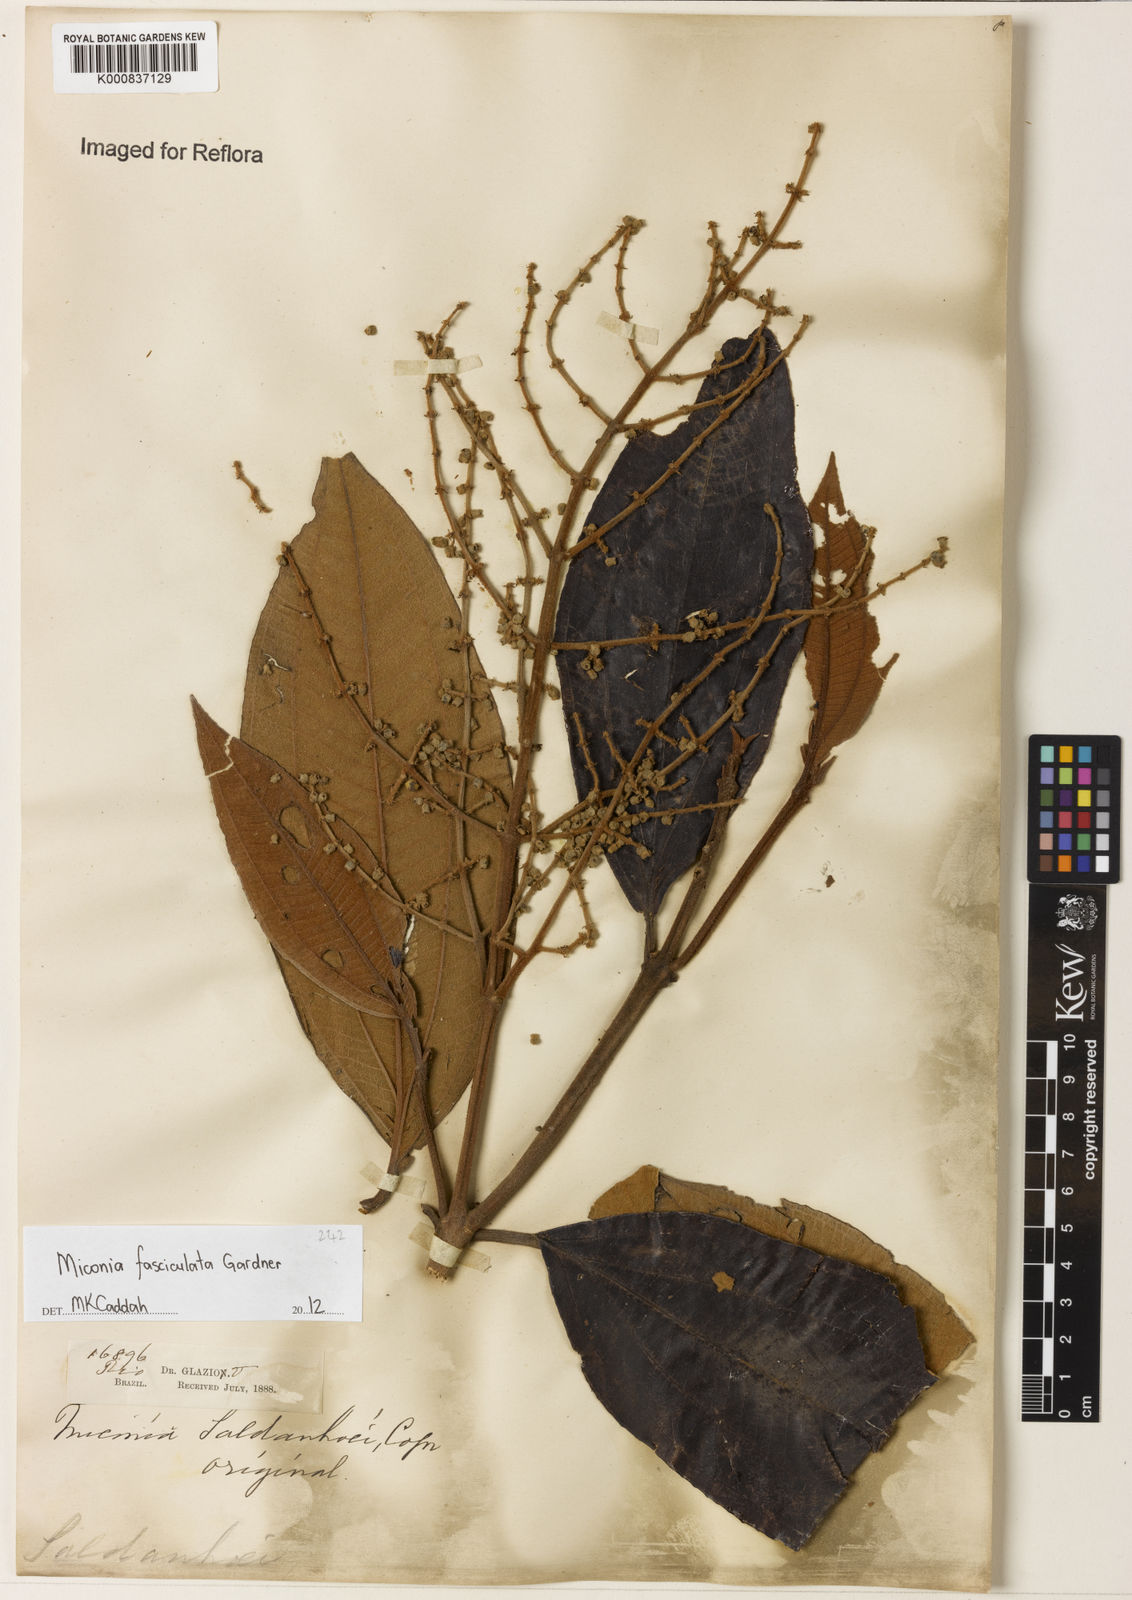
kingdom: Plantae
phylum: Tracheophyta
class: Magnoliopsida
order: Myrtales
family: Melastomataceae
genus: Miconia
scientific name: Miconia fasciculata
